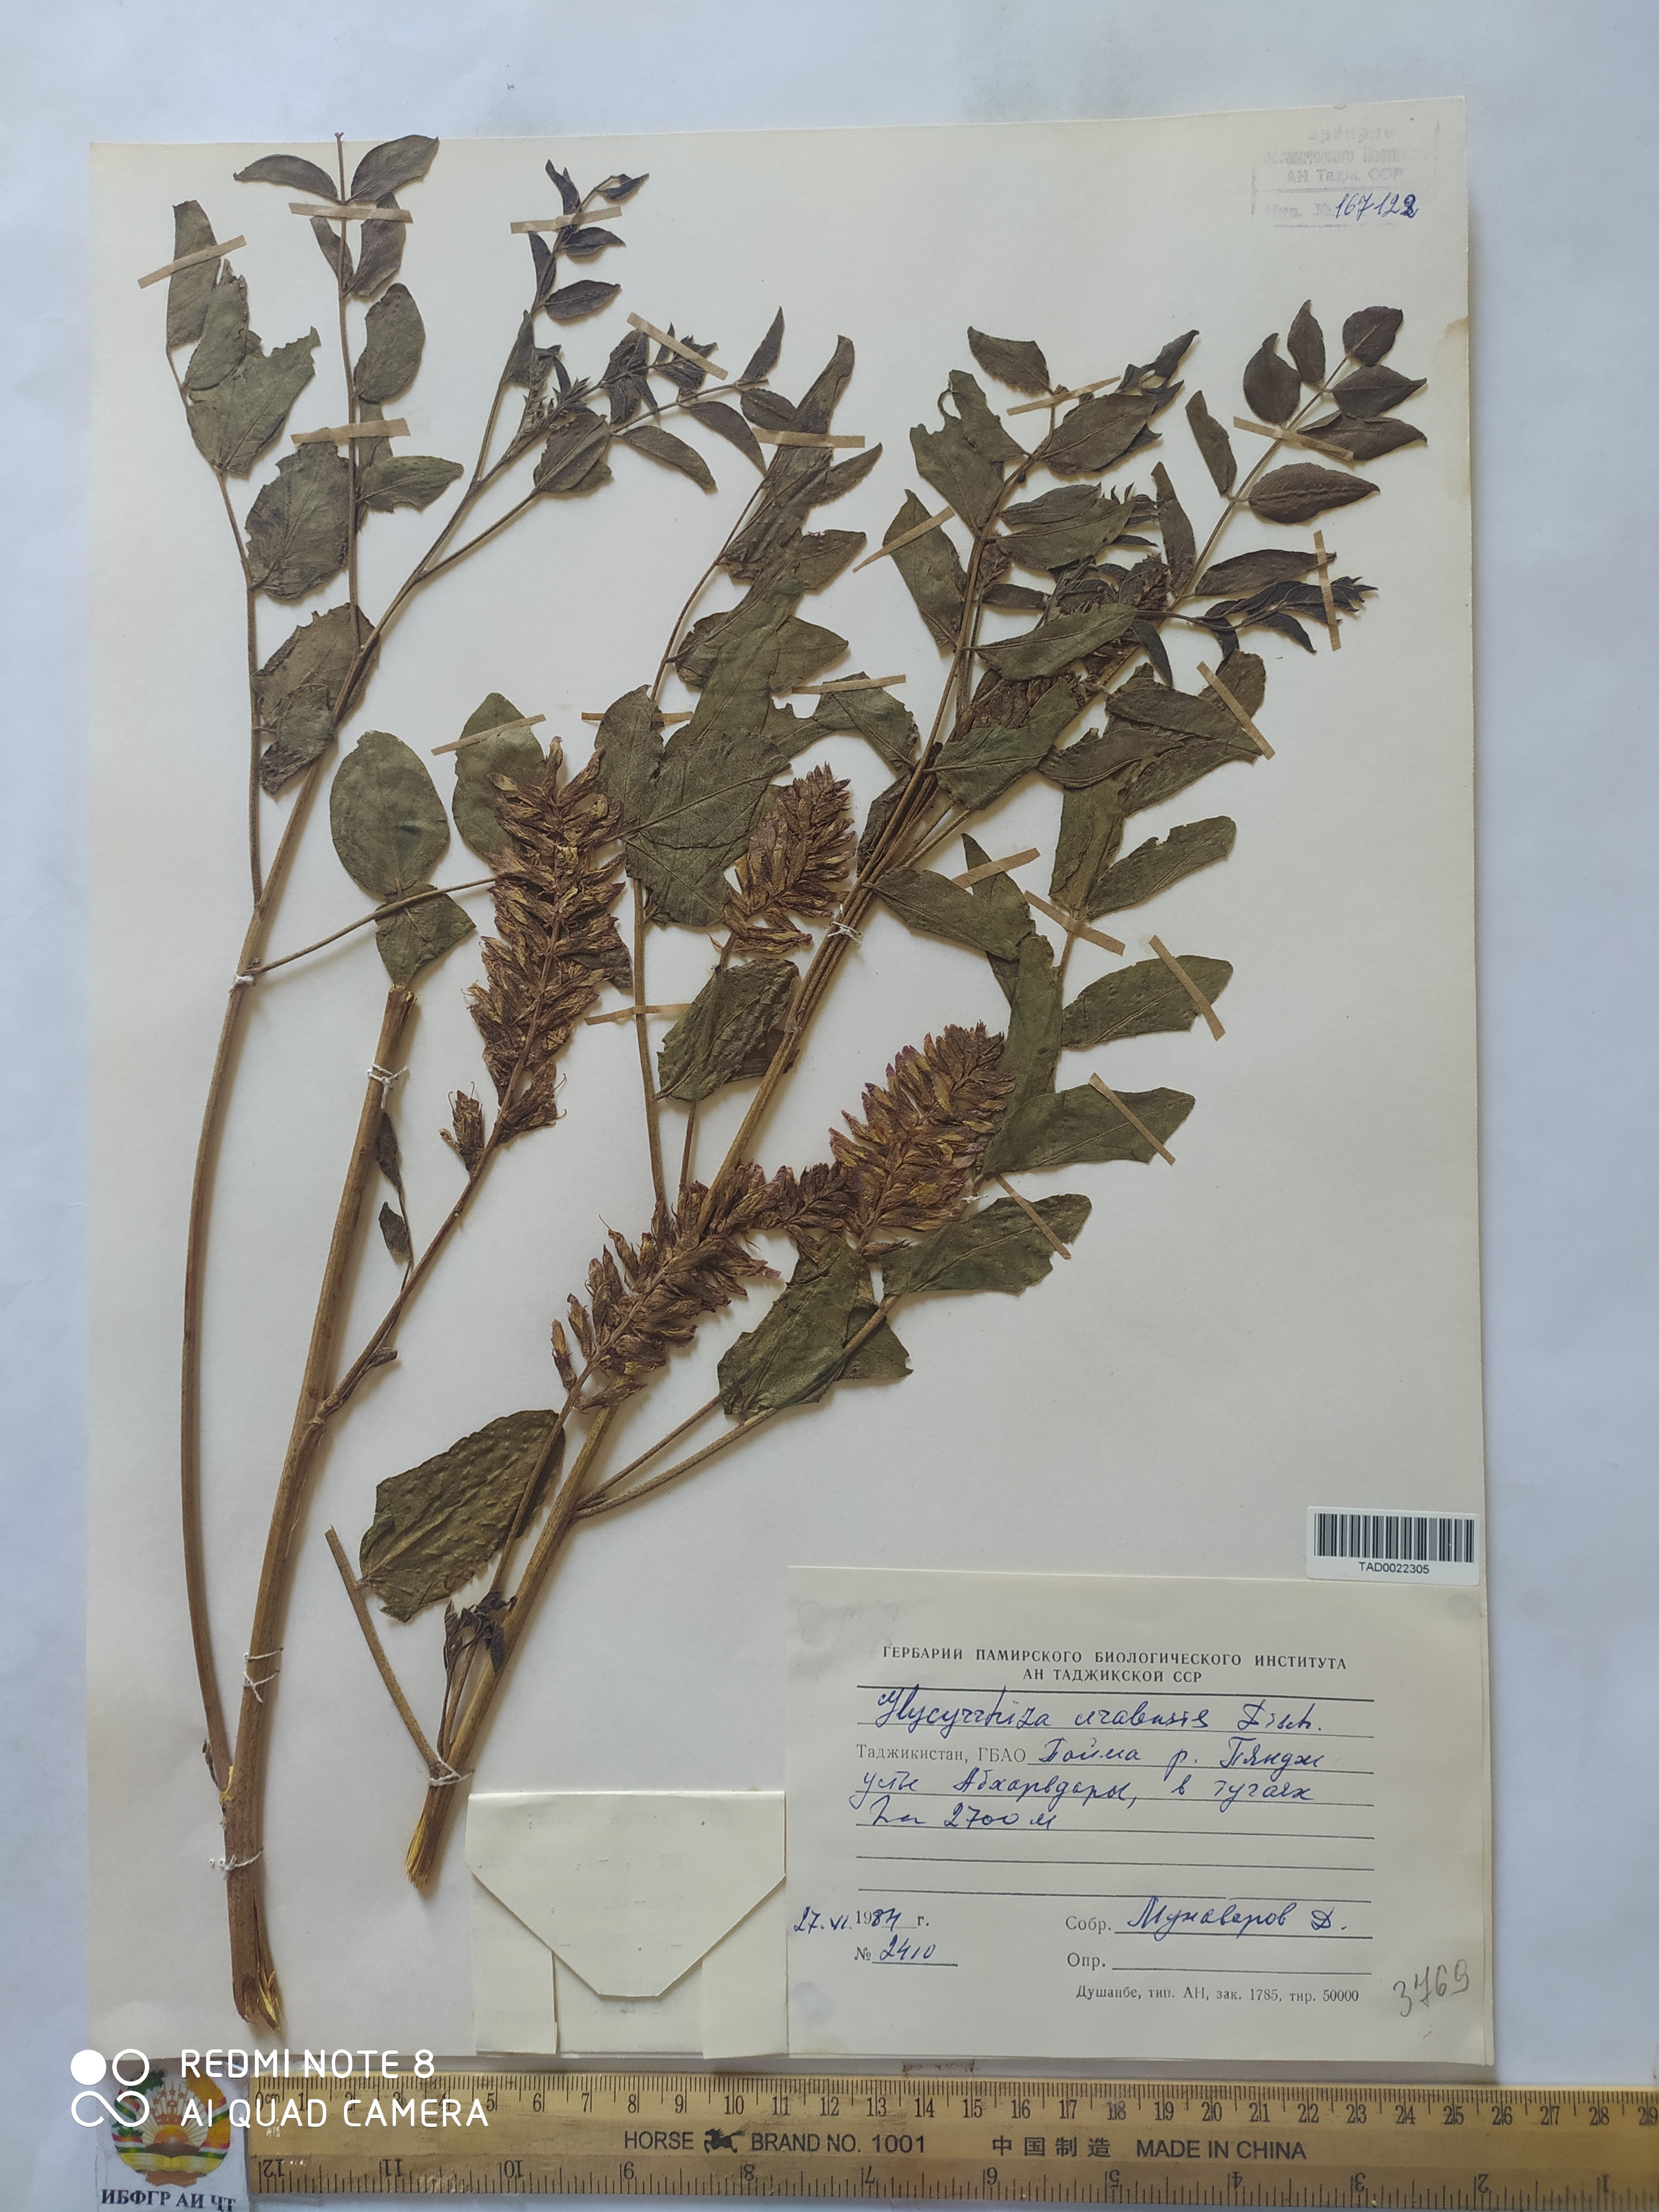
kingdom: Plantae
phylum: Tracheophyta
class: Magnoliopsida
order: Fabales
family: Fabaceae
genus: Glycyrrhiza
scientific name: Glycyrrhiza uralensis
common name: Chinese licorice
